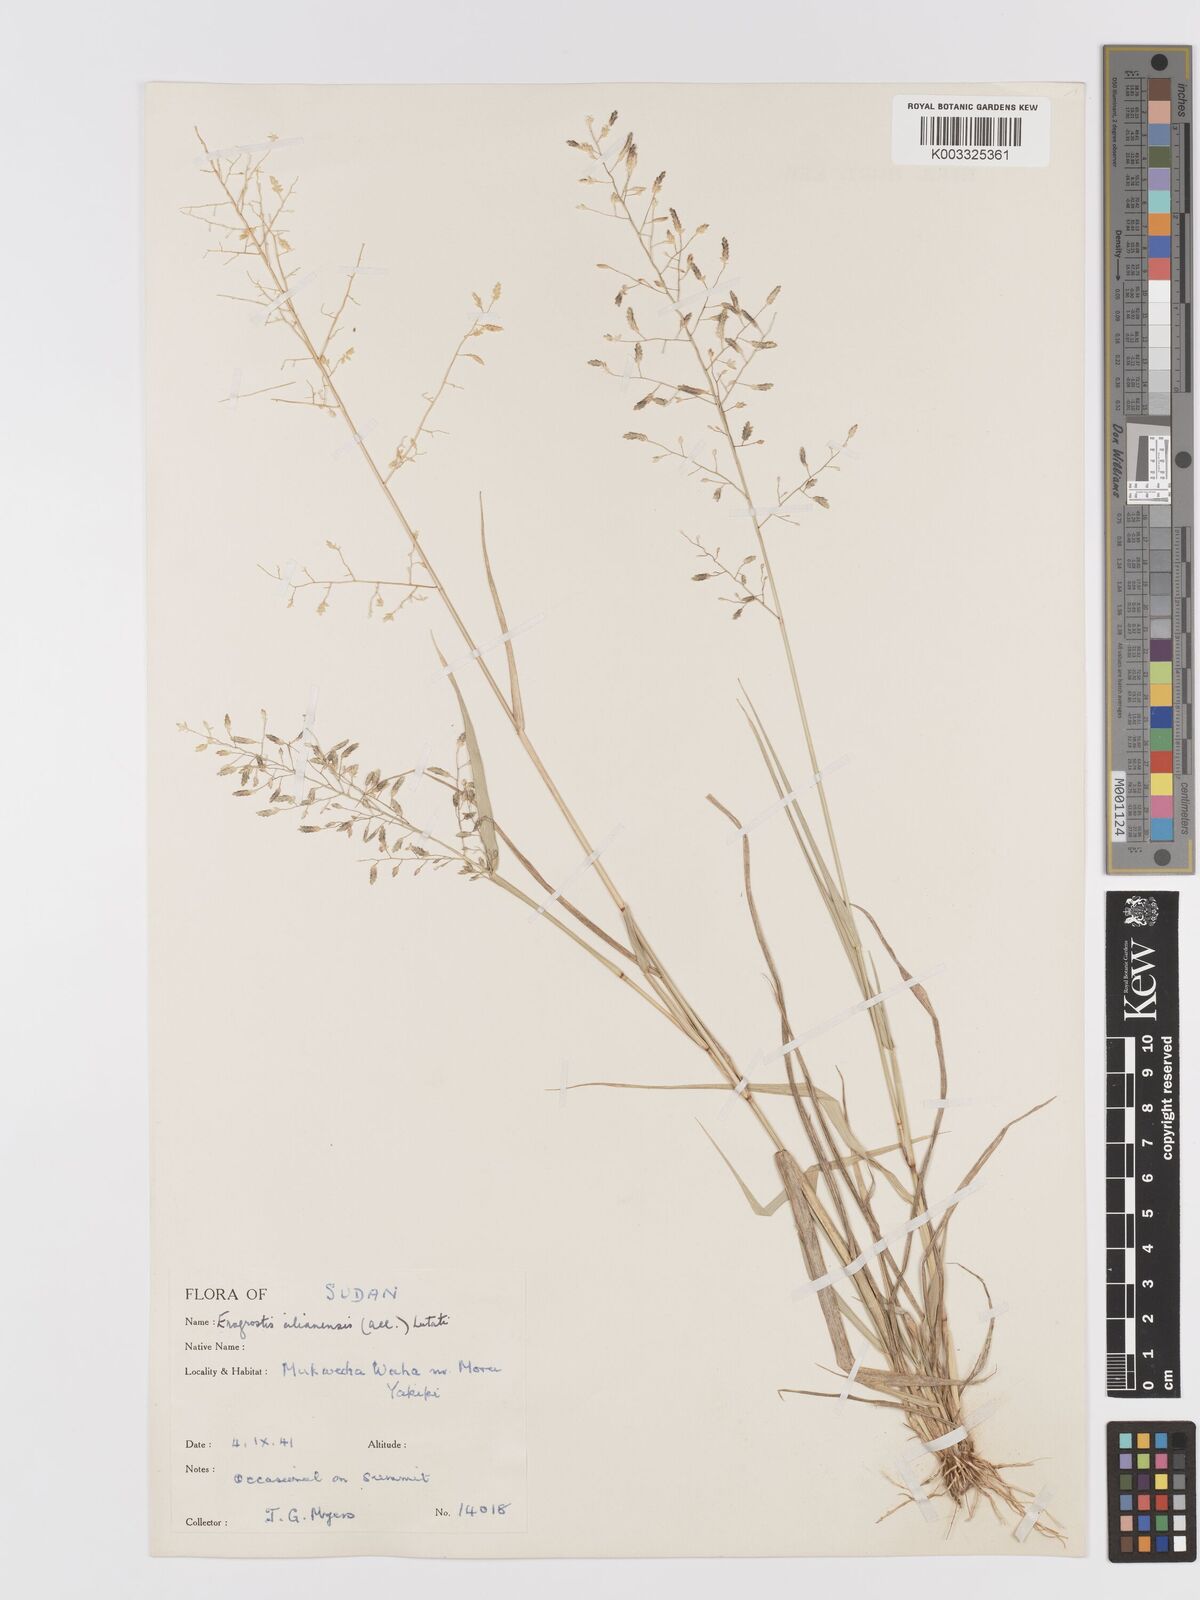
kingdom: Plantae
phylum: Tracheophyta
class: Liliopsida
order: Poales
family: Poaceae
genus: Eragrostis
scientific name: Eragrostis cilianensis
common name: Stinkgrass
